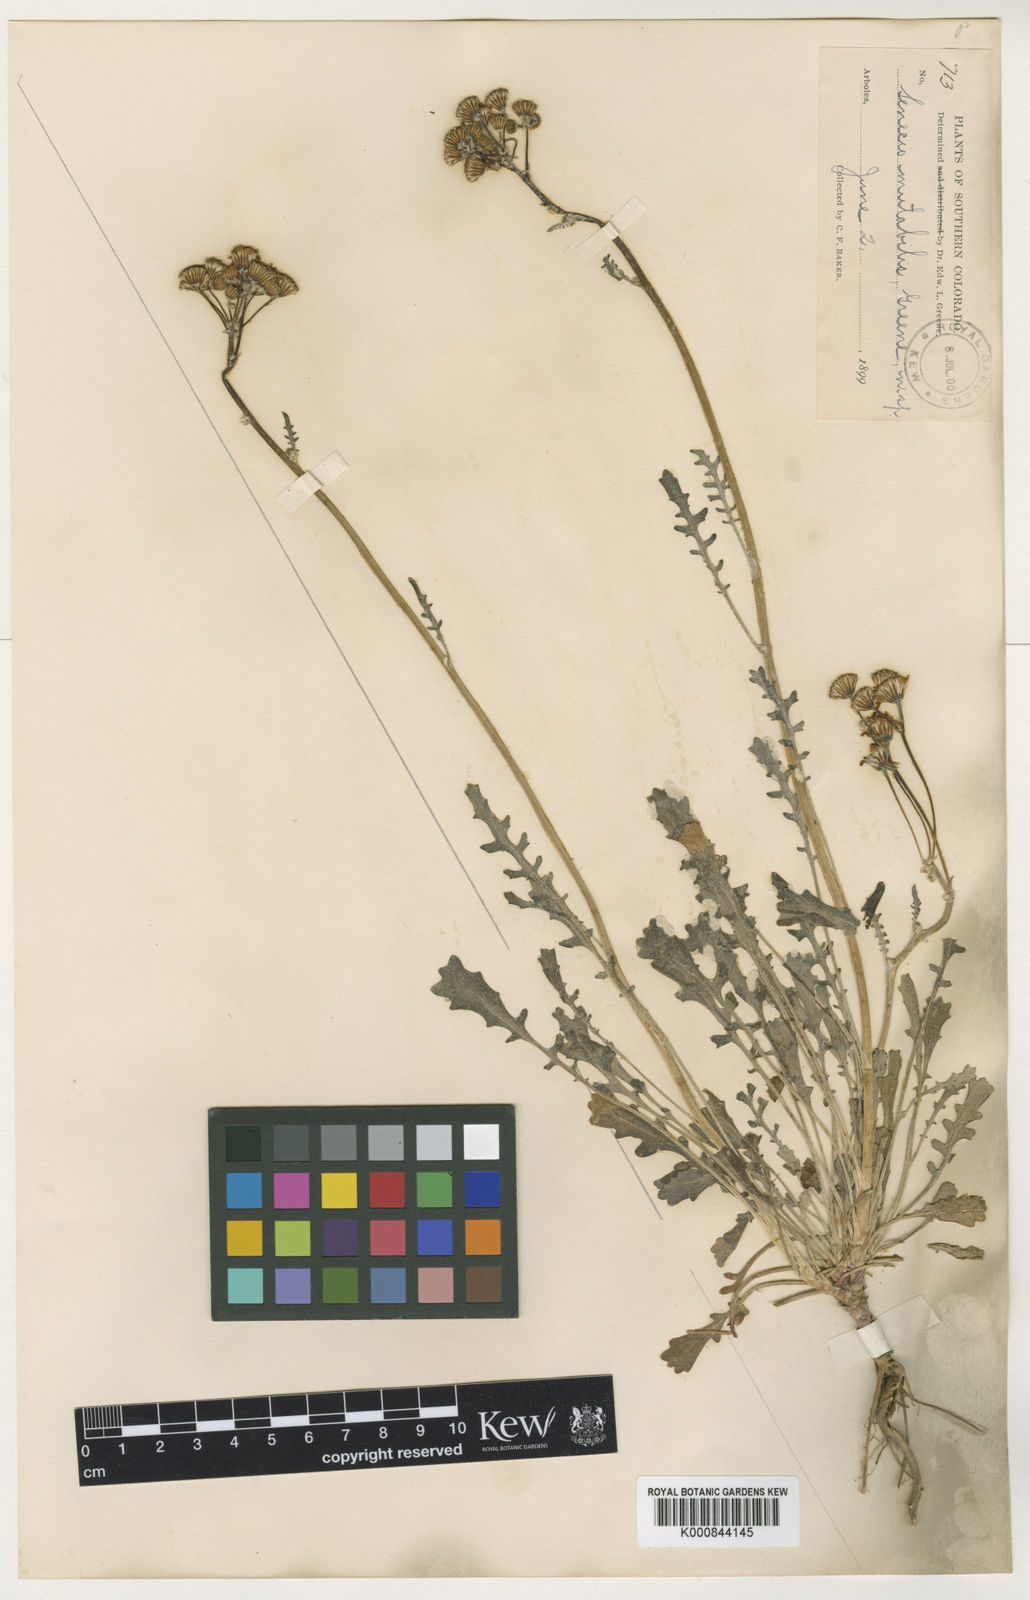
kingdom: Plantae
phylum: Tracheophyta
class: Magnoliopsida
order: Asterales
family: Asteraceae
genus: Packera
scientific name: Packera
